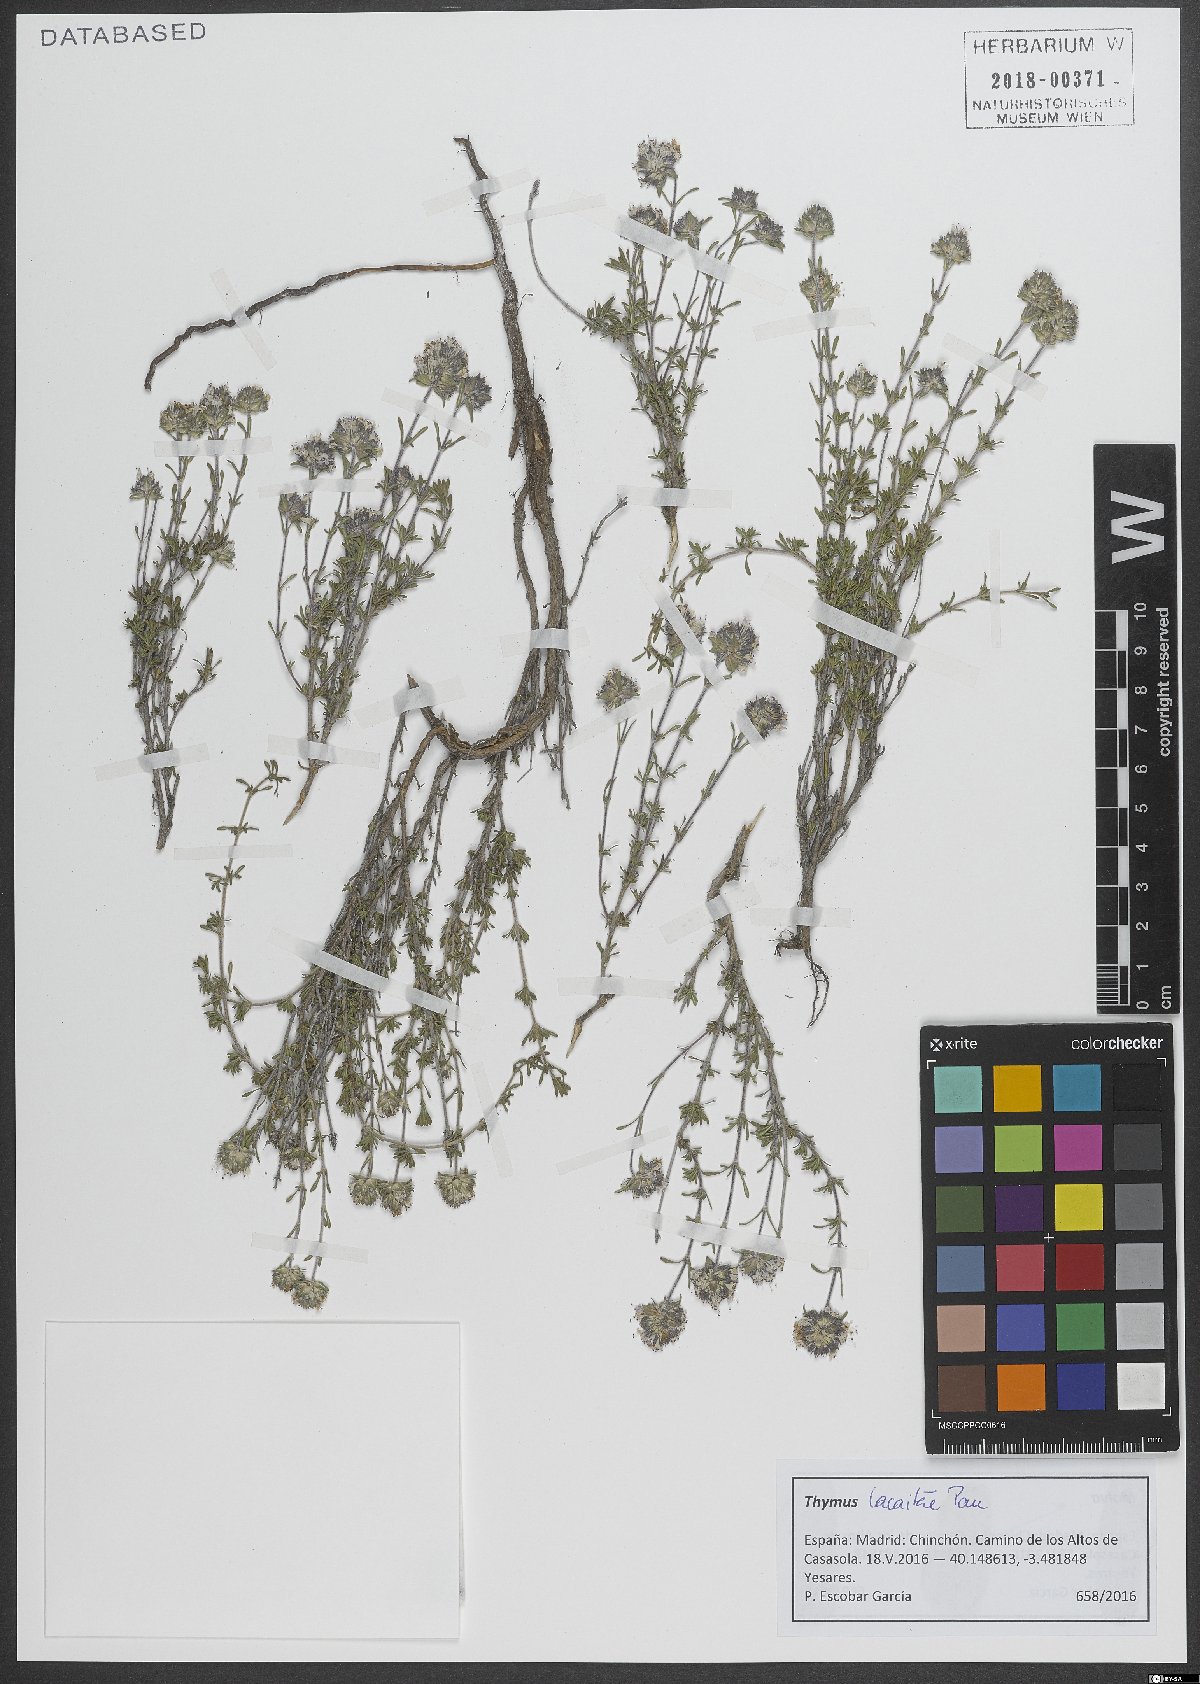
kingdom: Plantae
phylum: Tracheophyta
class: Magnoliopsida
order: Lamiales
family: Lamiaceae
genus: Thymus
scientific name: Thymus lacaitae
